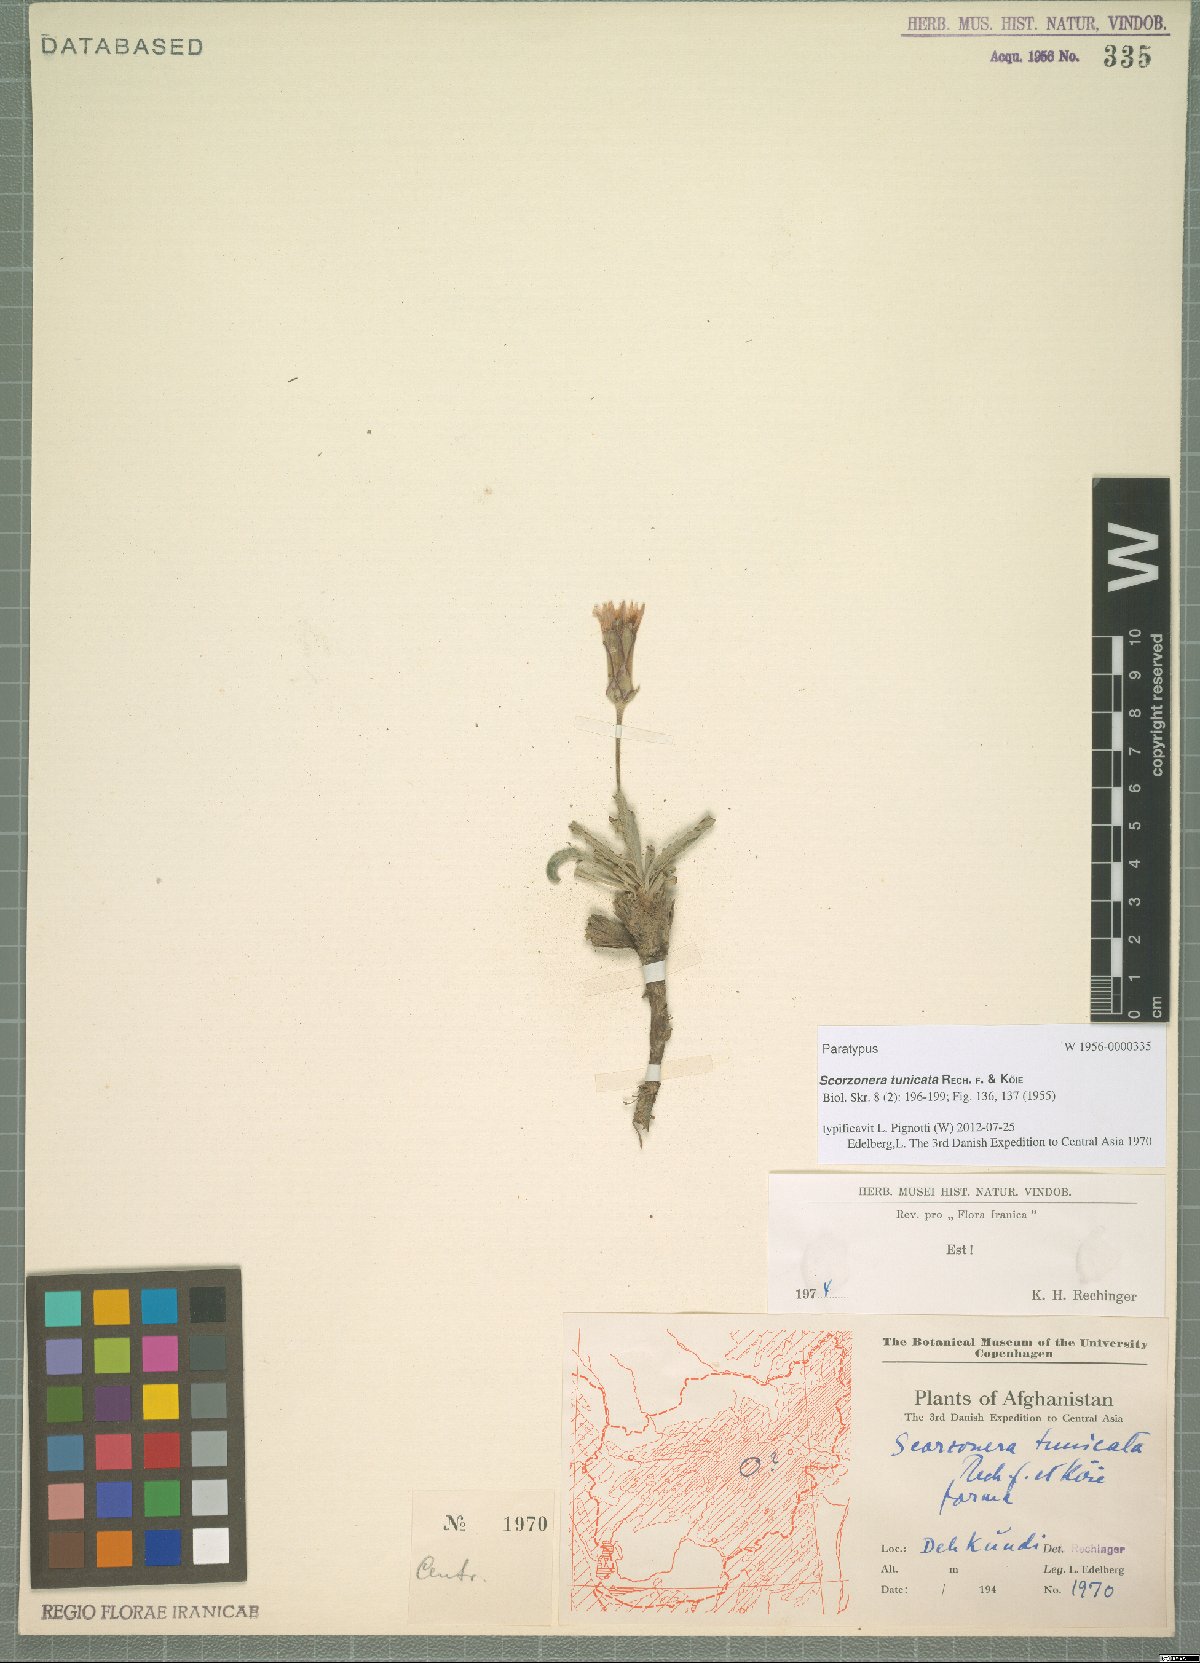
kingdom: Plantae
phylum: Tracheophyta
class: Magnoliopsida
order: Asterales
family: Asteraceae
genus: Scorzonera
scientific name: Scorzonera tunicata
